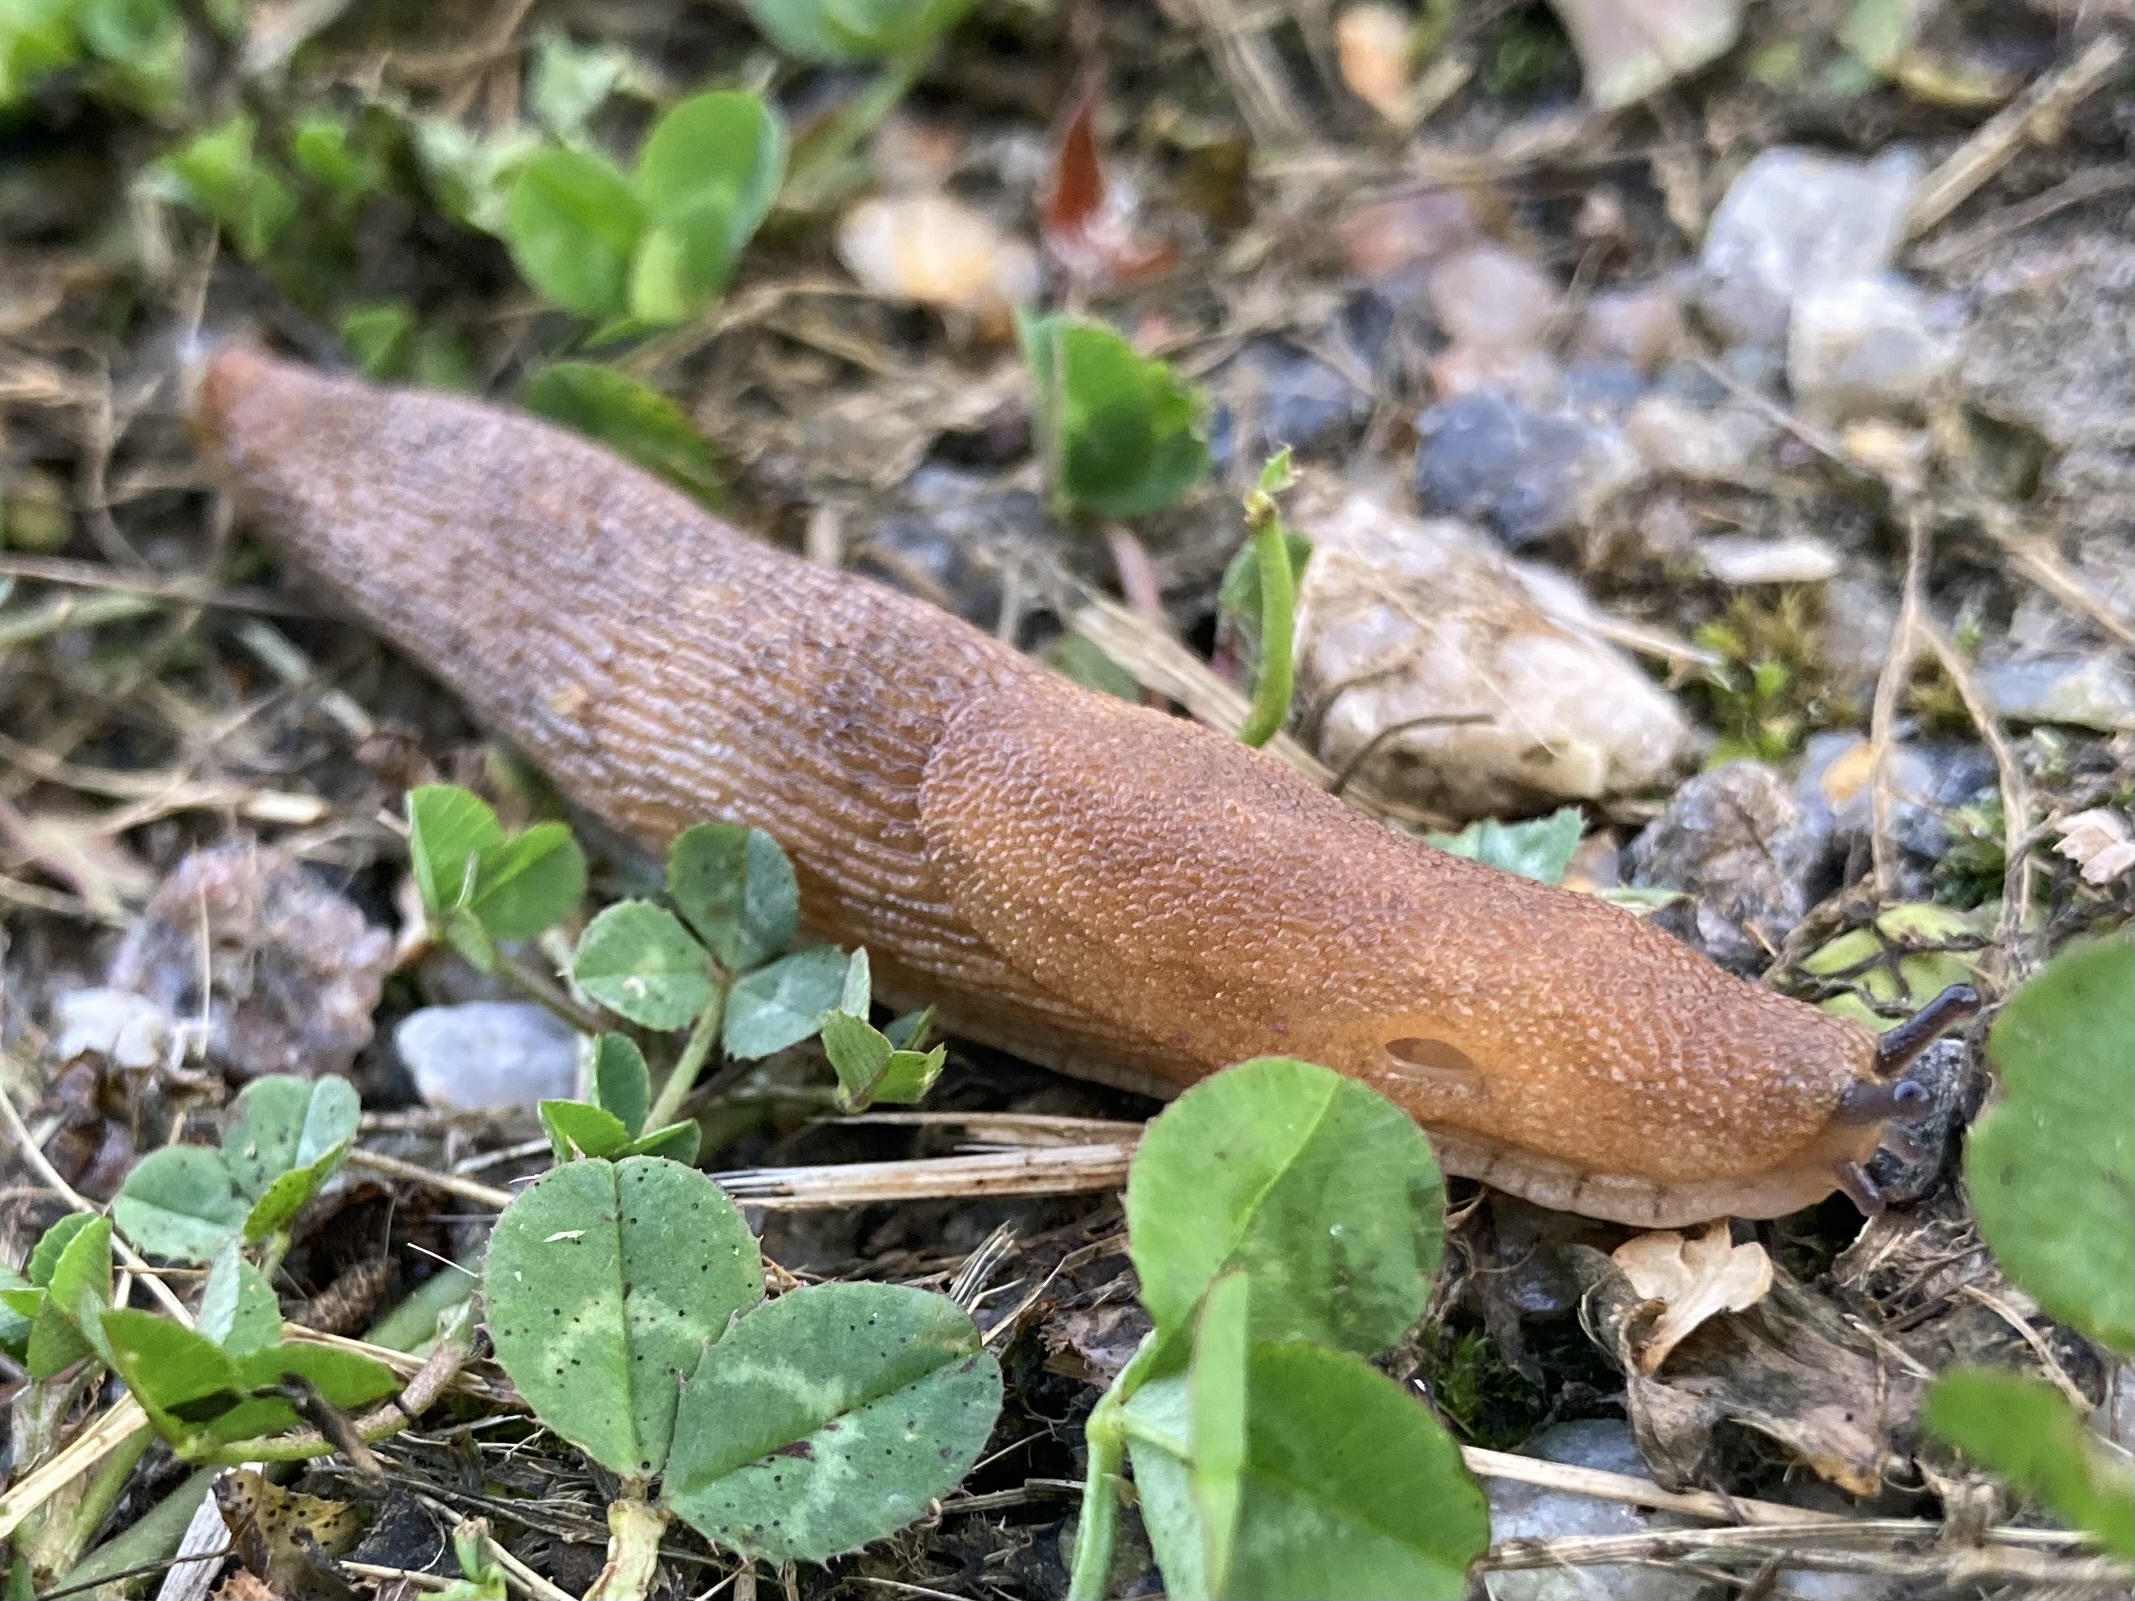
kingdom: Animalia
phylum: Mollusca
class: Gastropoda
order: Stylommatophora
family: Arionidae
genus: Arion
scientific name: Arion vulgaris
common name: Lusitanian slug
